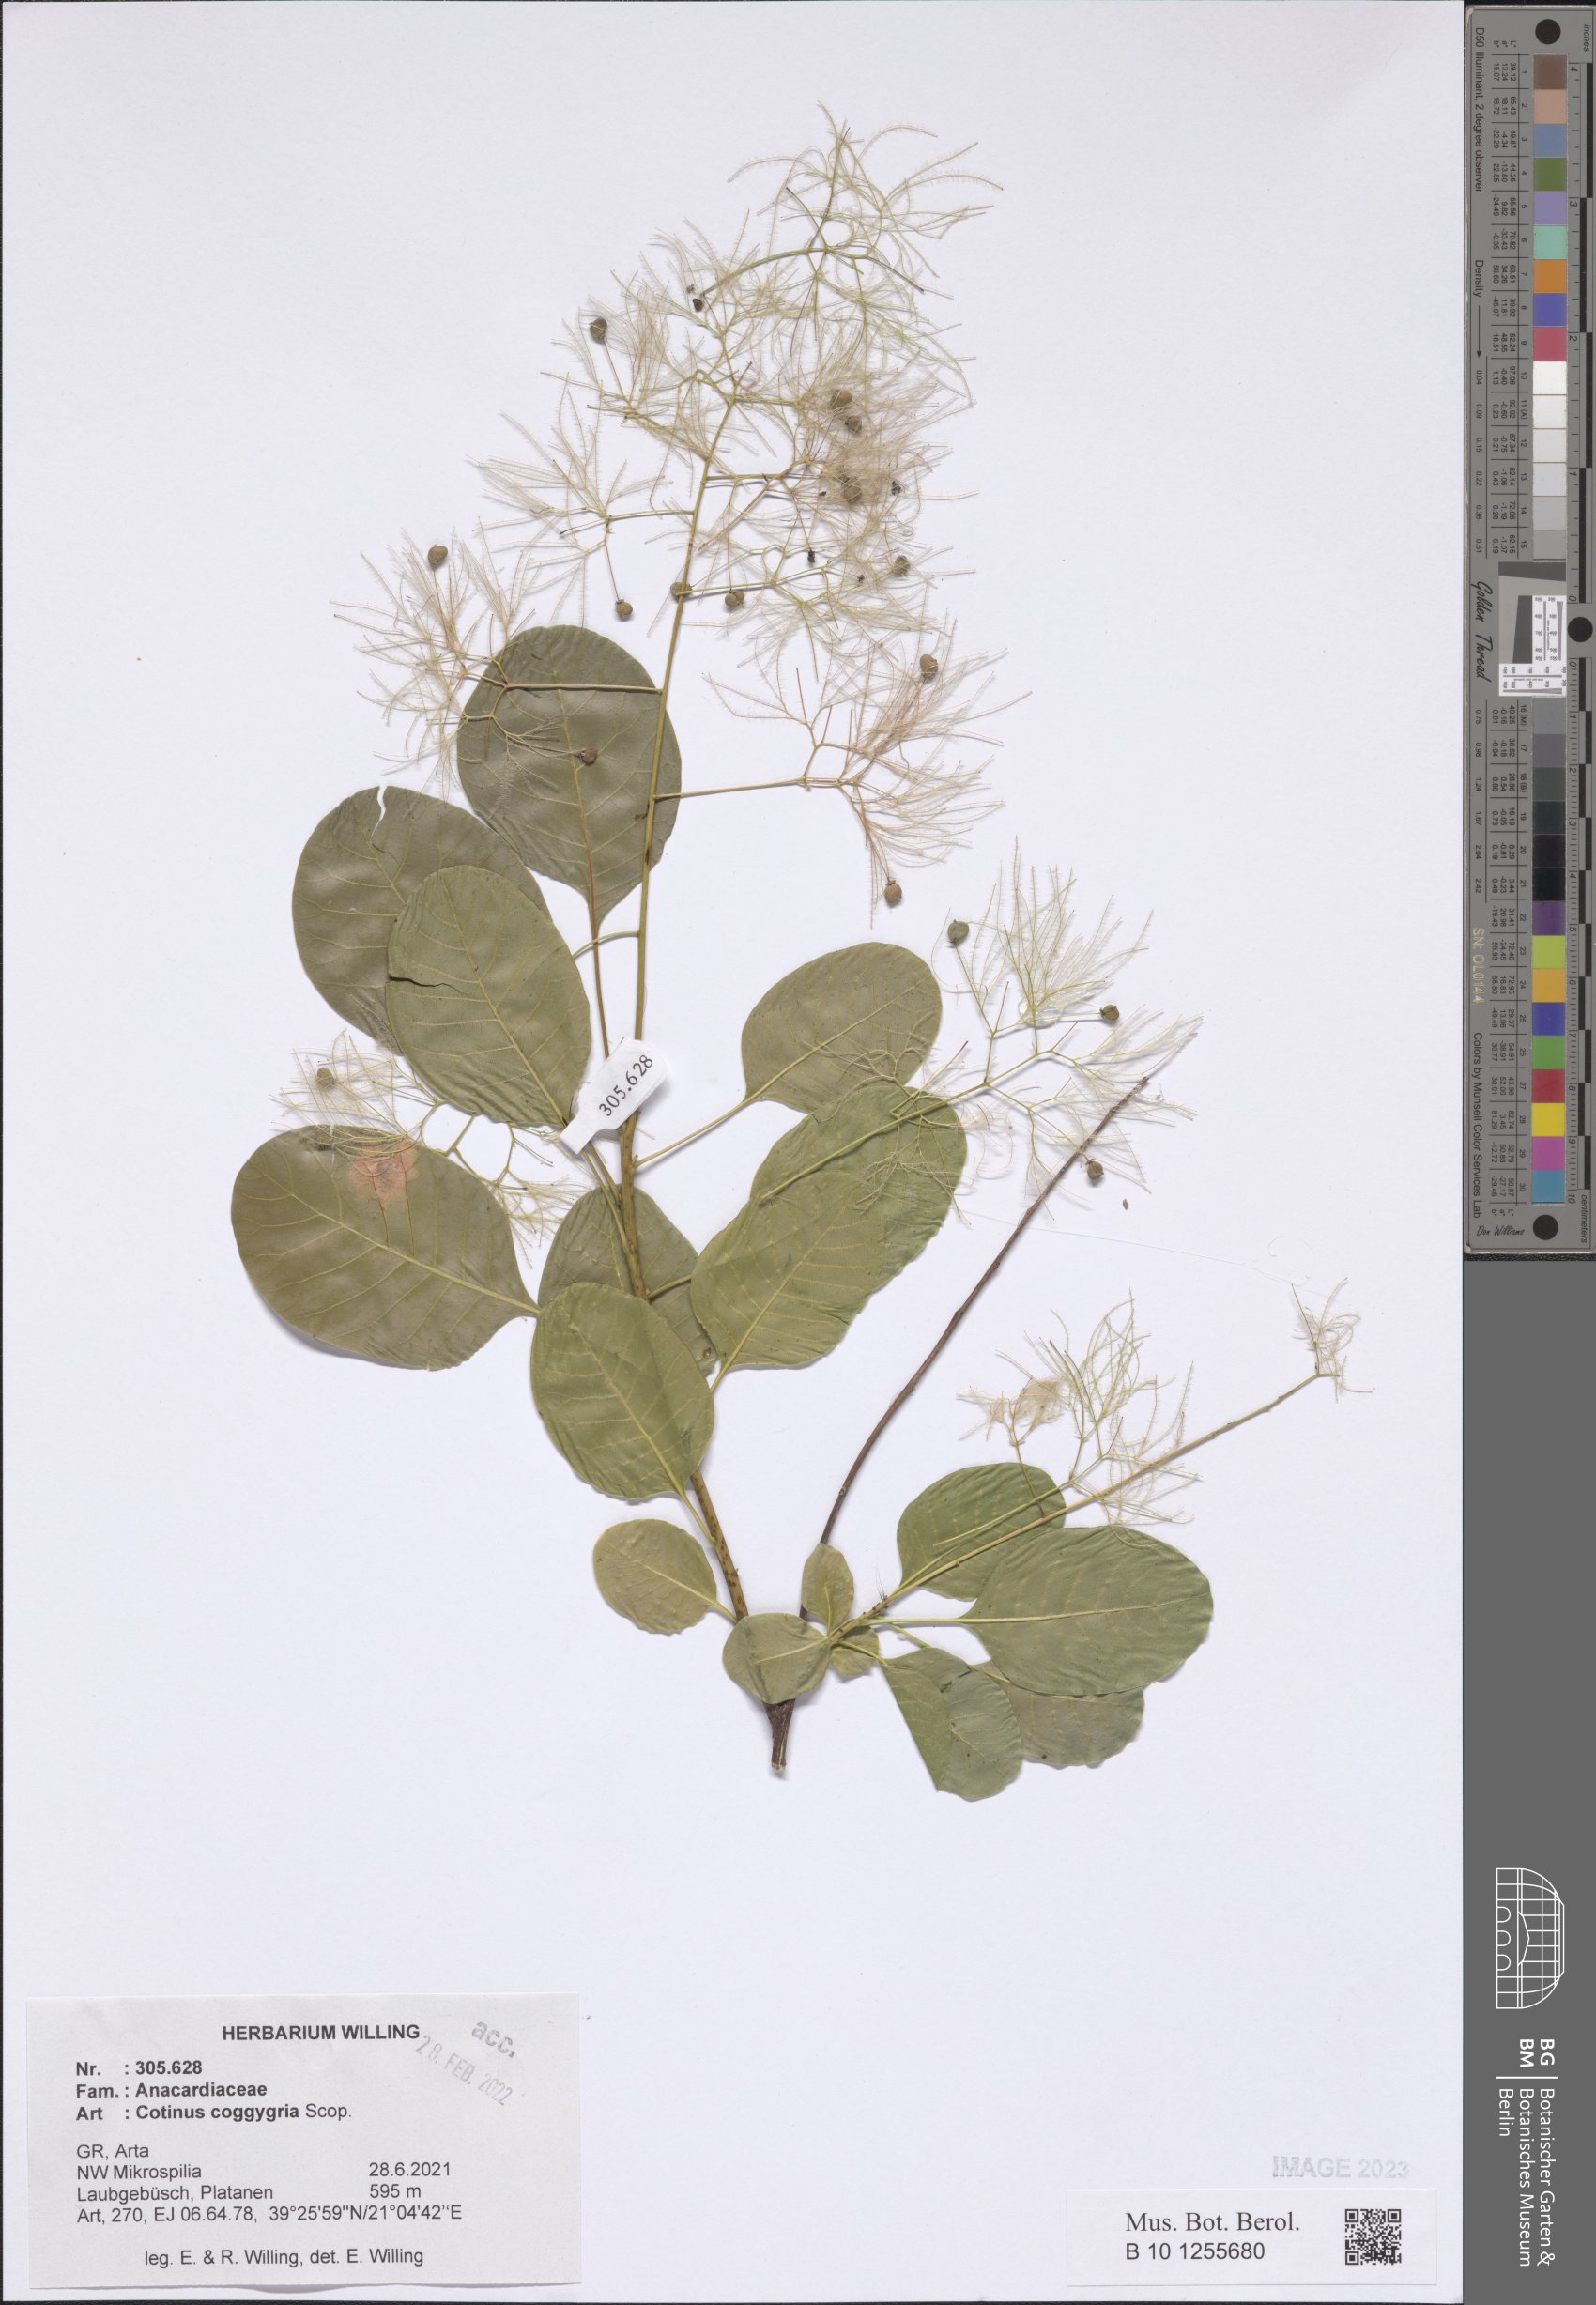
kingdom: Plantae
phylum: Tracheophyta
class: Magnoliopsida
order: Sapindales
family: Anacardiaceae
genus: Cotinus
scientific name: Cotinus coggygria
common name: Smoke-tree
